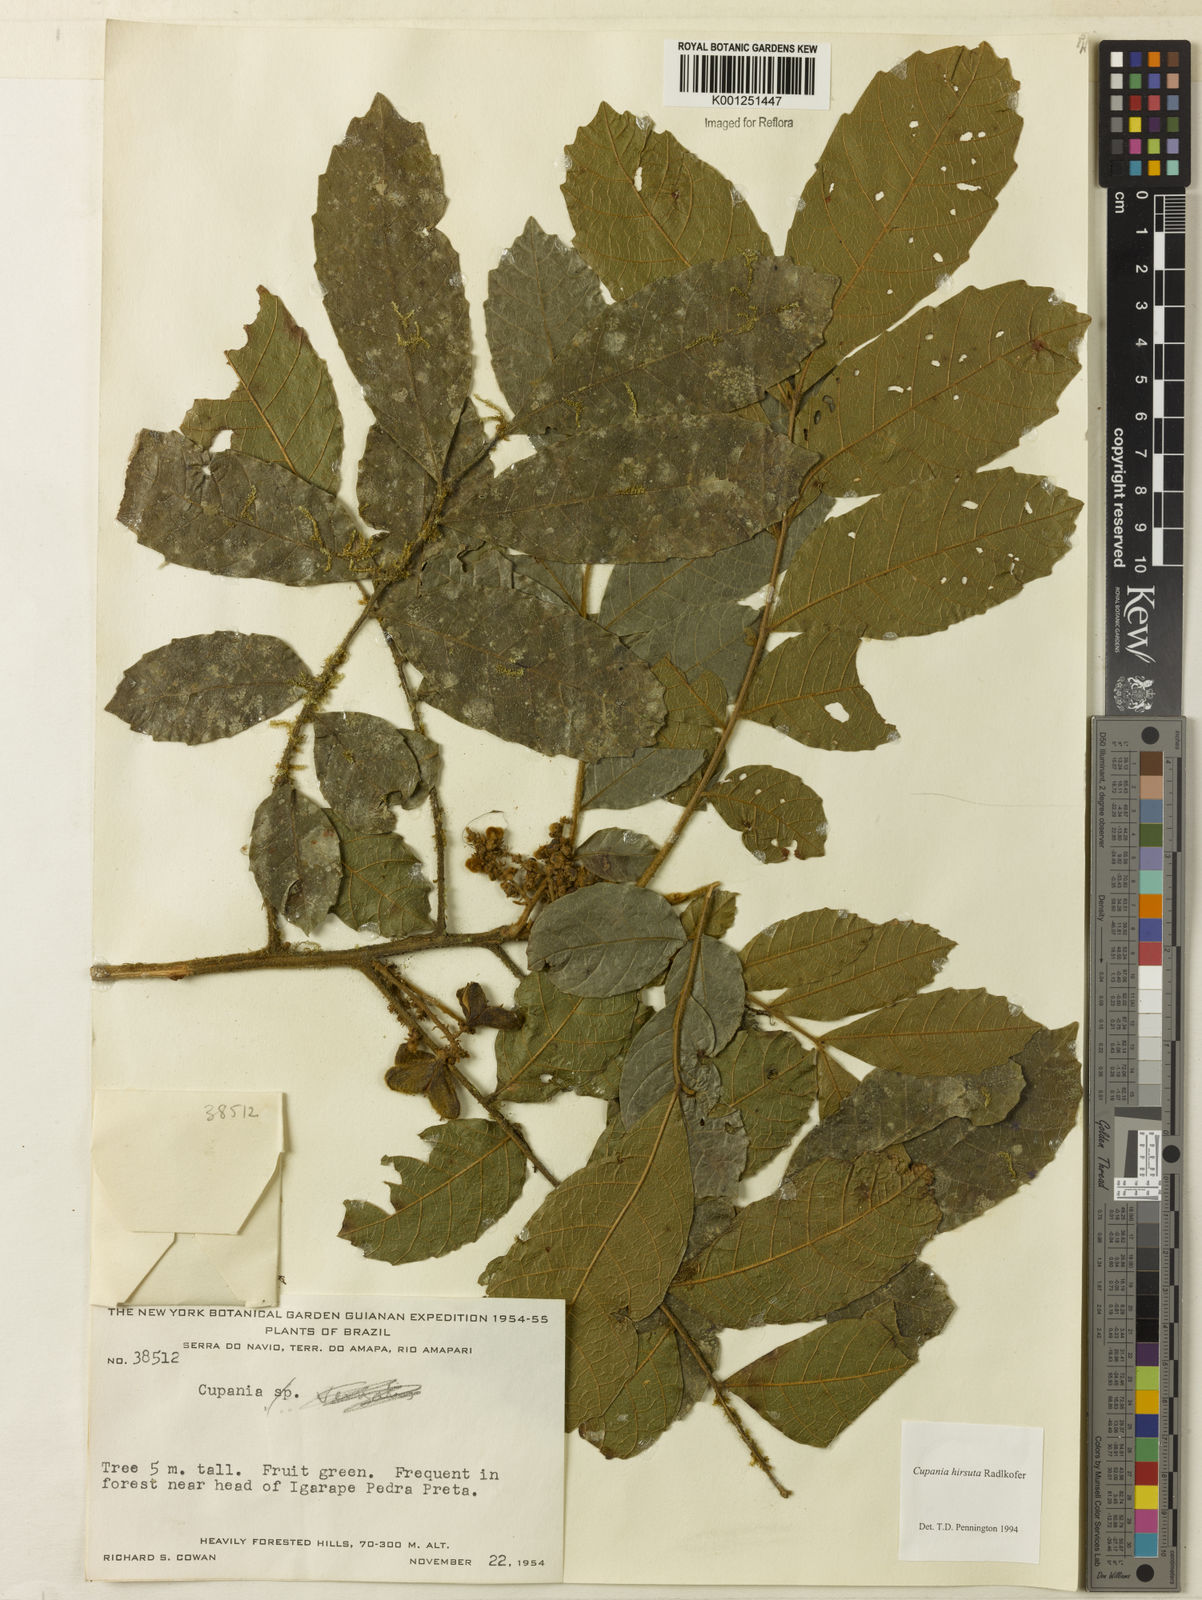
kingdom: Plantae
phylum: Tracheophyta
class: Magnoliopsida
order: Sapindales
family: Sapindaceae
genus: Cupania
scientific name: Cupania hirsuta
